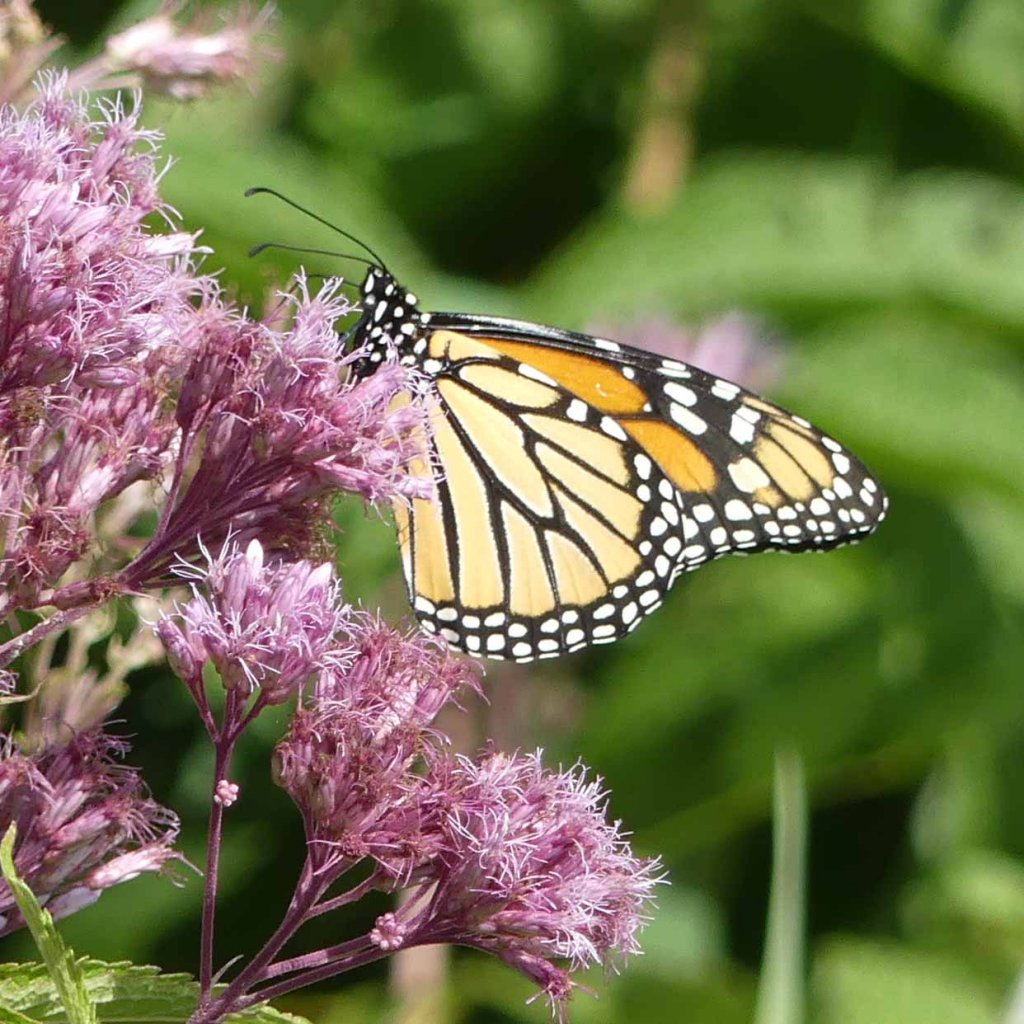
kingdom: Animalia
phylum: Arthropoda
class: Insecta
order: Lepidoptera
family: Nymphalidae
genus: Danaus
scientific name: Danaus plexippus
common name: Monarch
